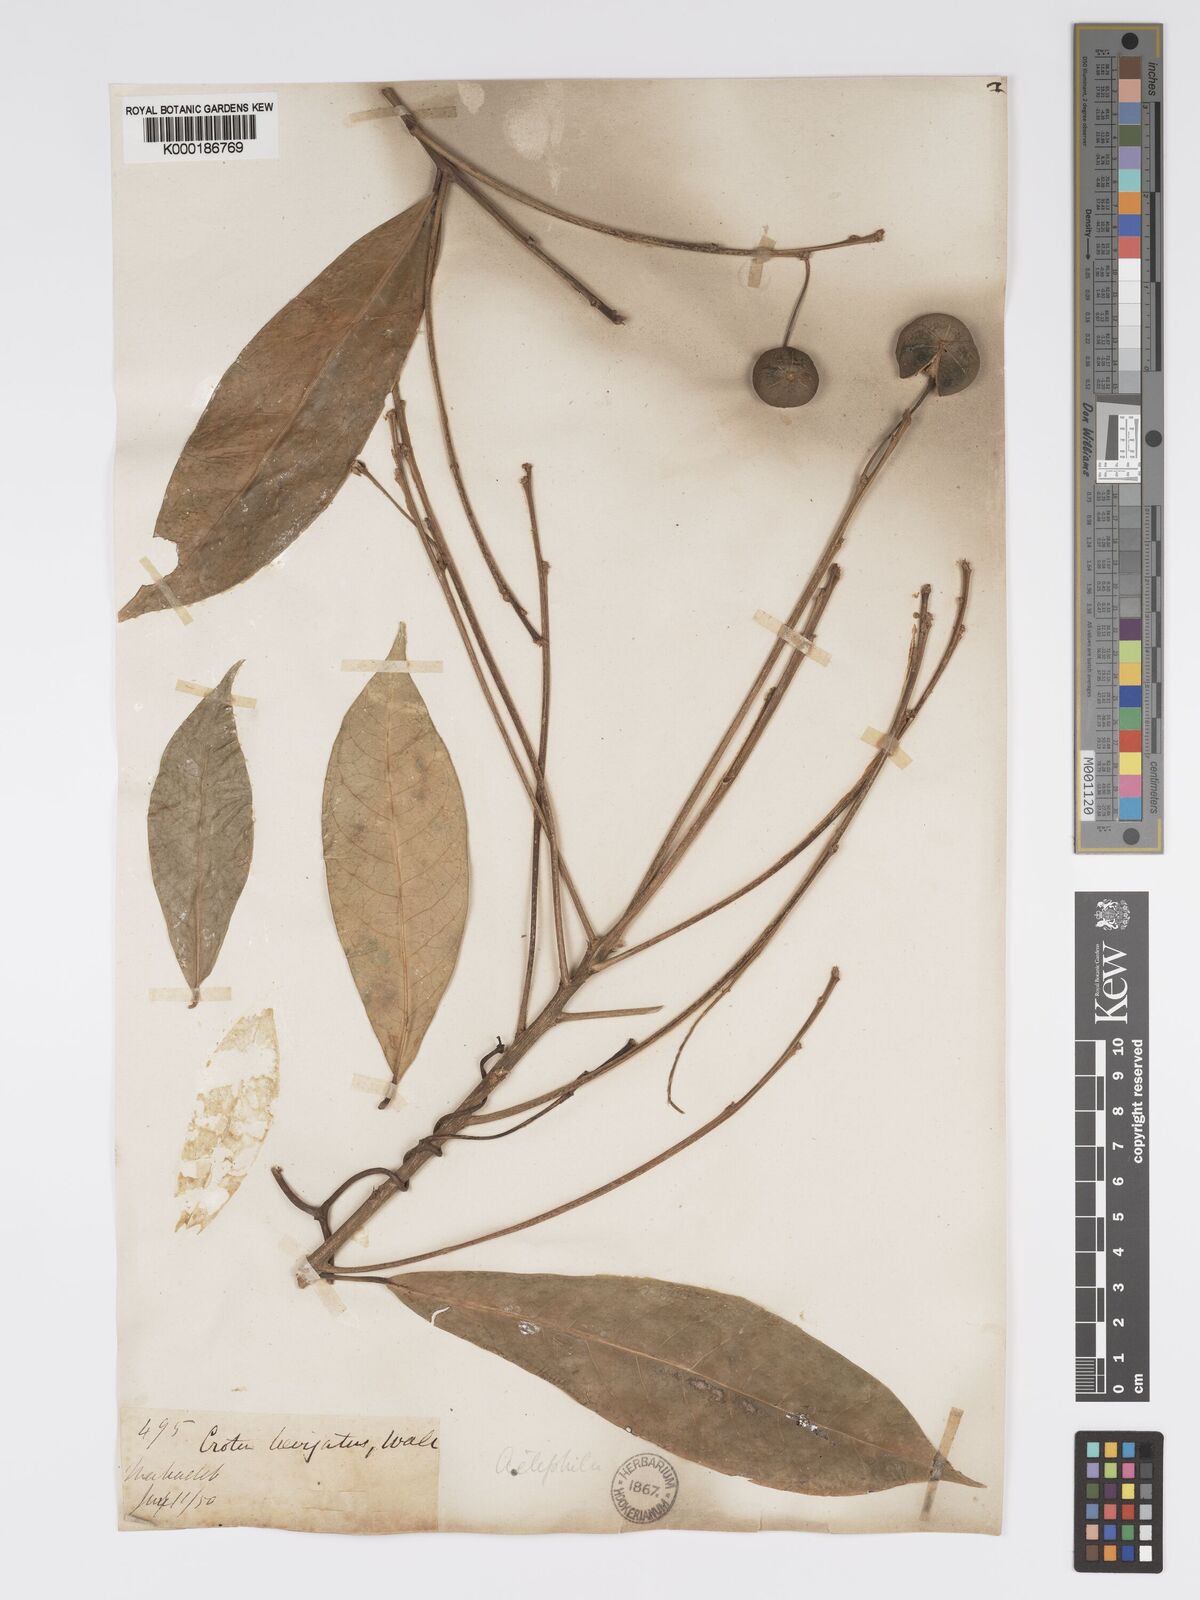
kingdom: Plantae
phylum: Tracheophyta
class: Magnoliopsida
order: Malpighiales
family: Phyllanthaceae
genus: Actephila
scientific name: Actephila excelsa
